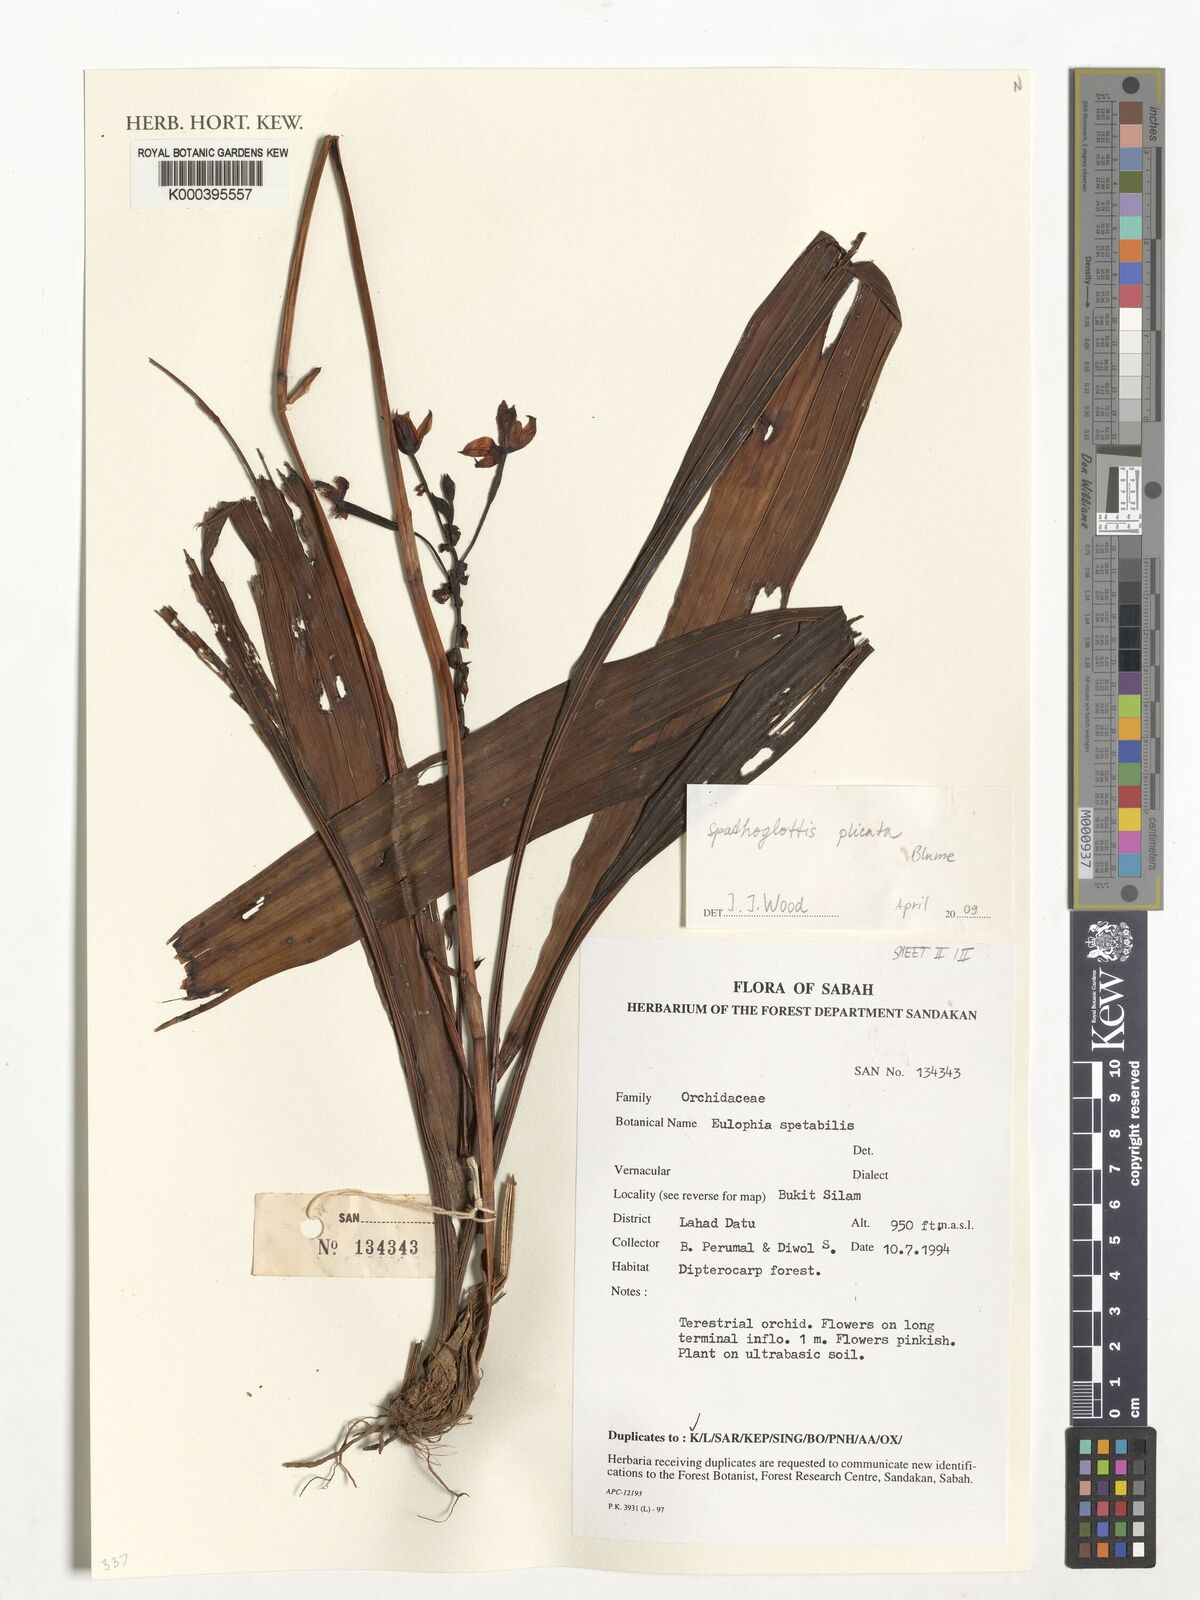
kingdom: Plantae
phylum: Tracheophyta
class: Liliopsida
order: Asparagales
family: Orchidaceae
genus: Spathoglottis
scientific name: Spathoglottis plicata
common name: Philippine ground orchid
